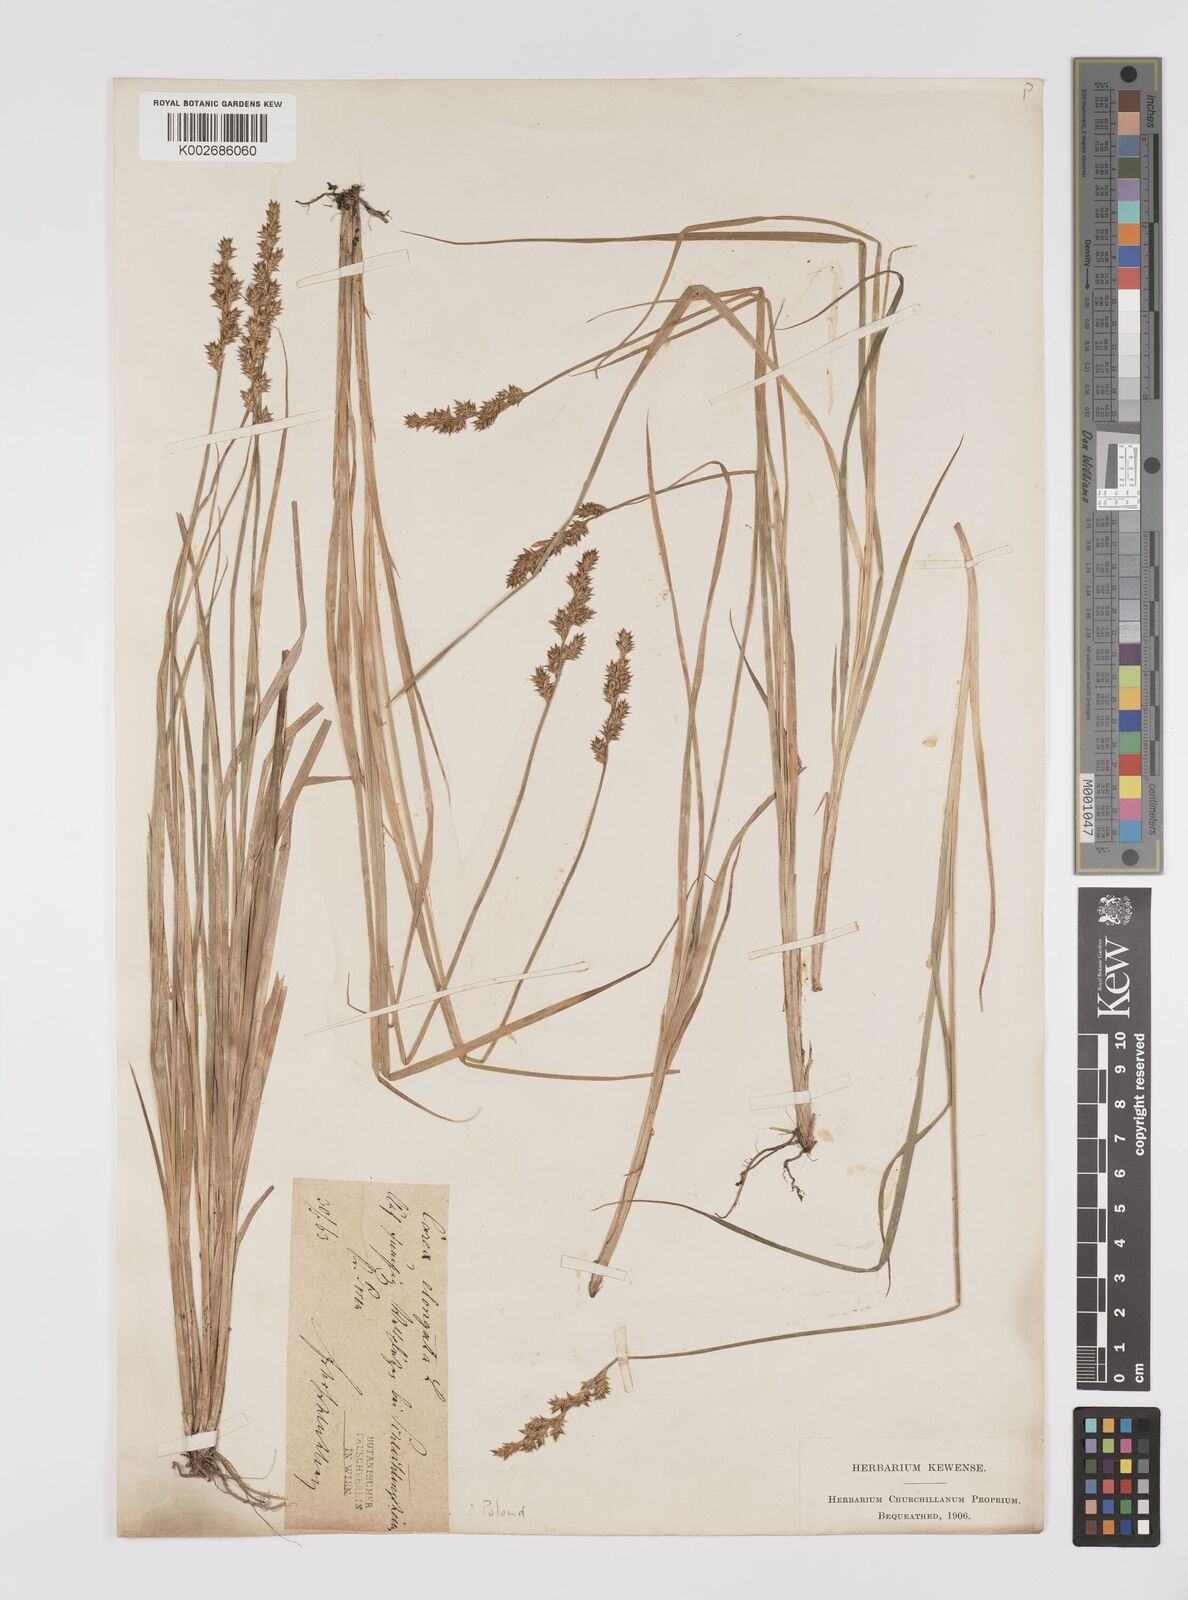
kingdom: Plantae
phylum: Tracheophyta
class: Liliopsida
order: Poales
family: Cyperaceae
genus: Carex
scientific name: Carex elongata
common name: Elongated sedge
